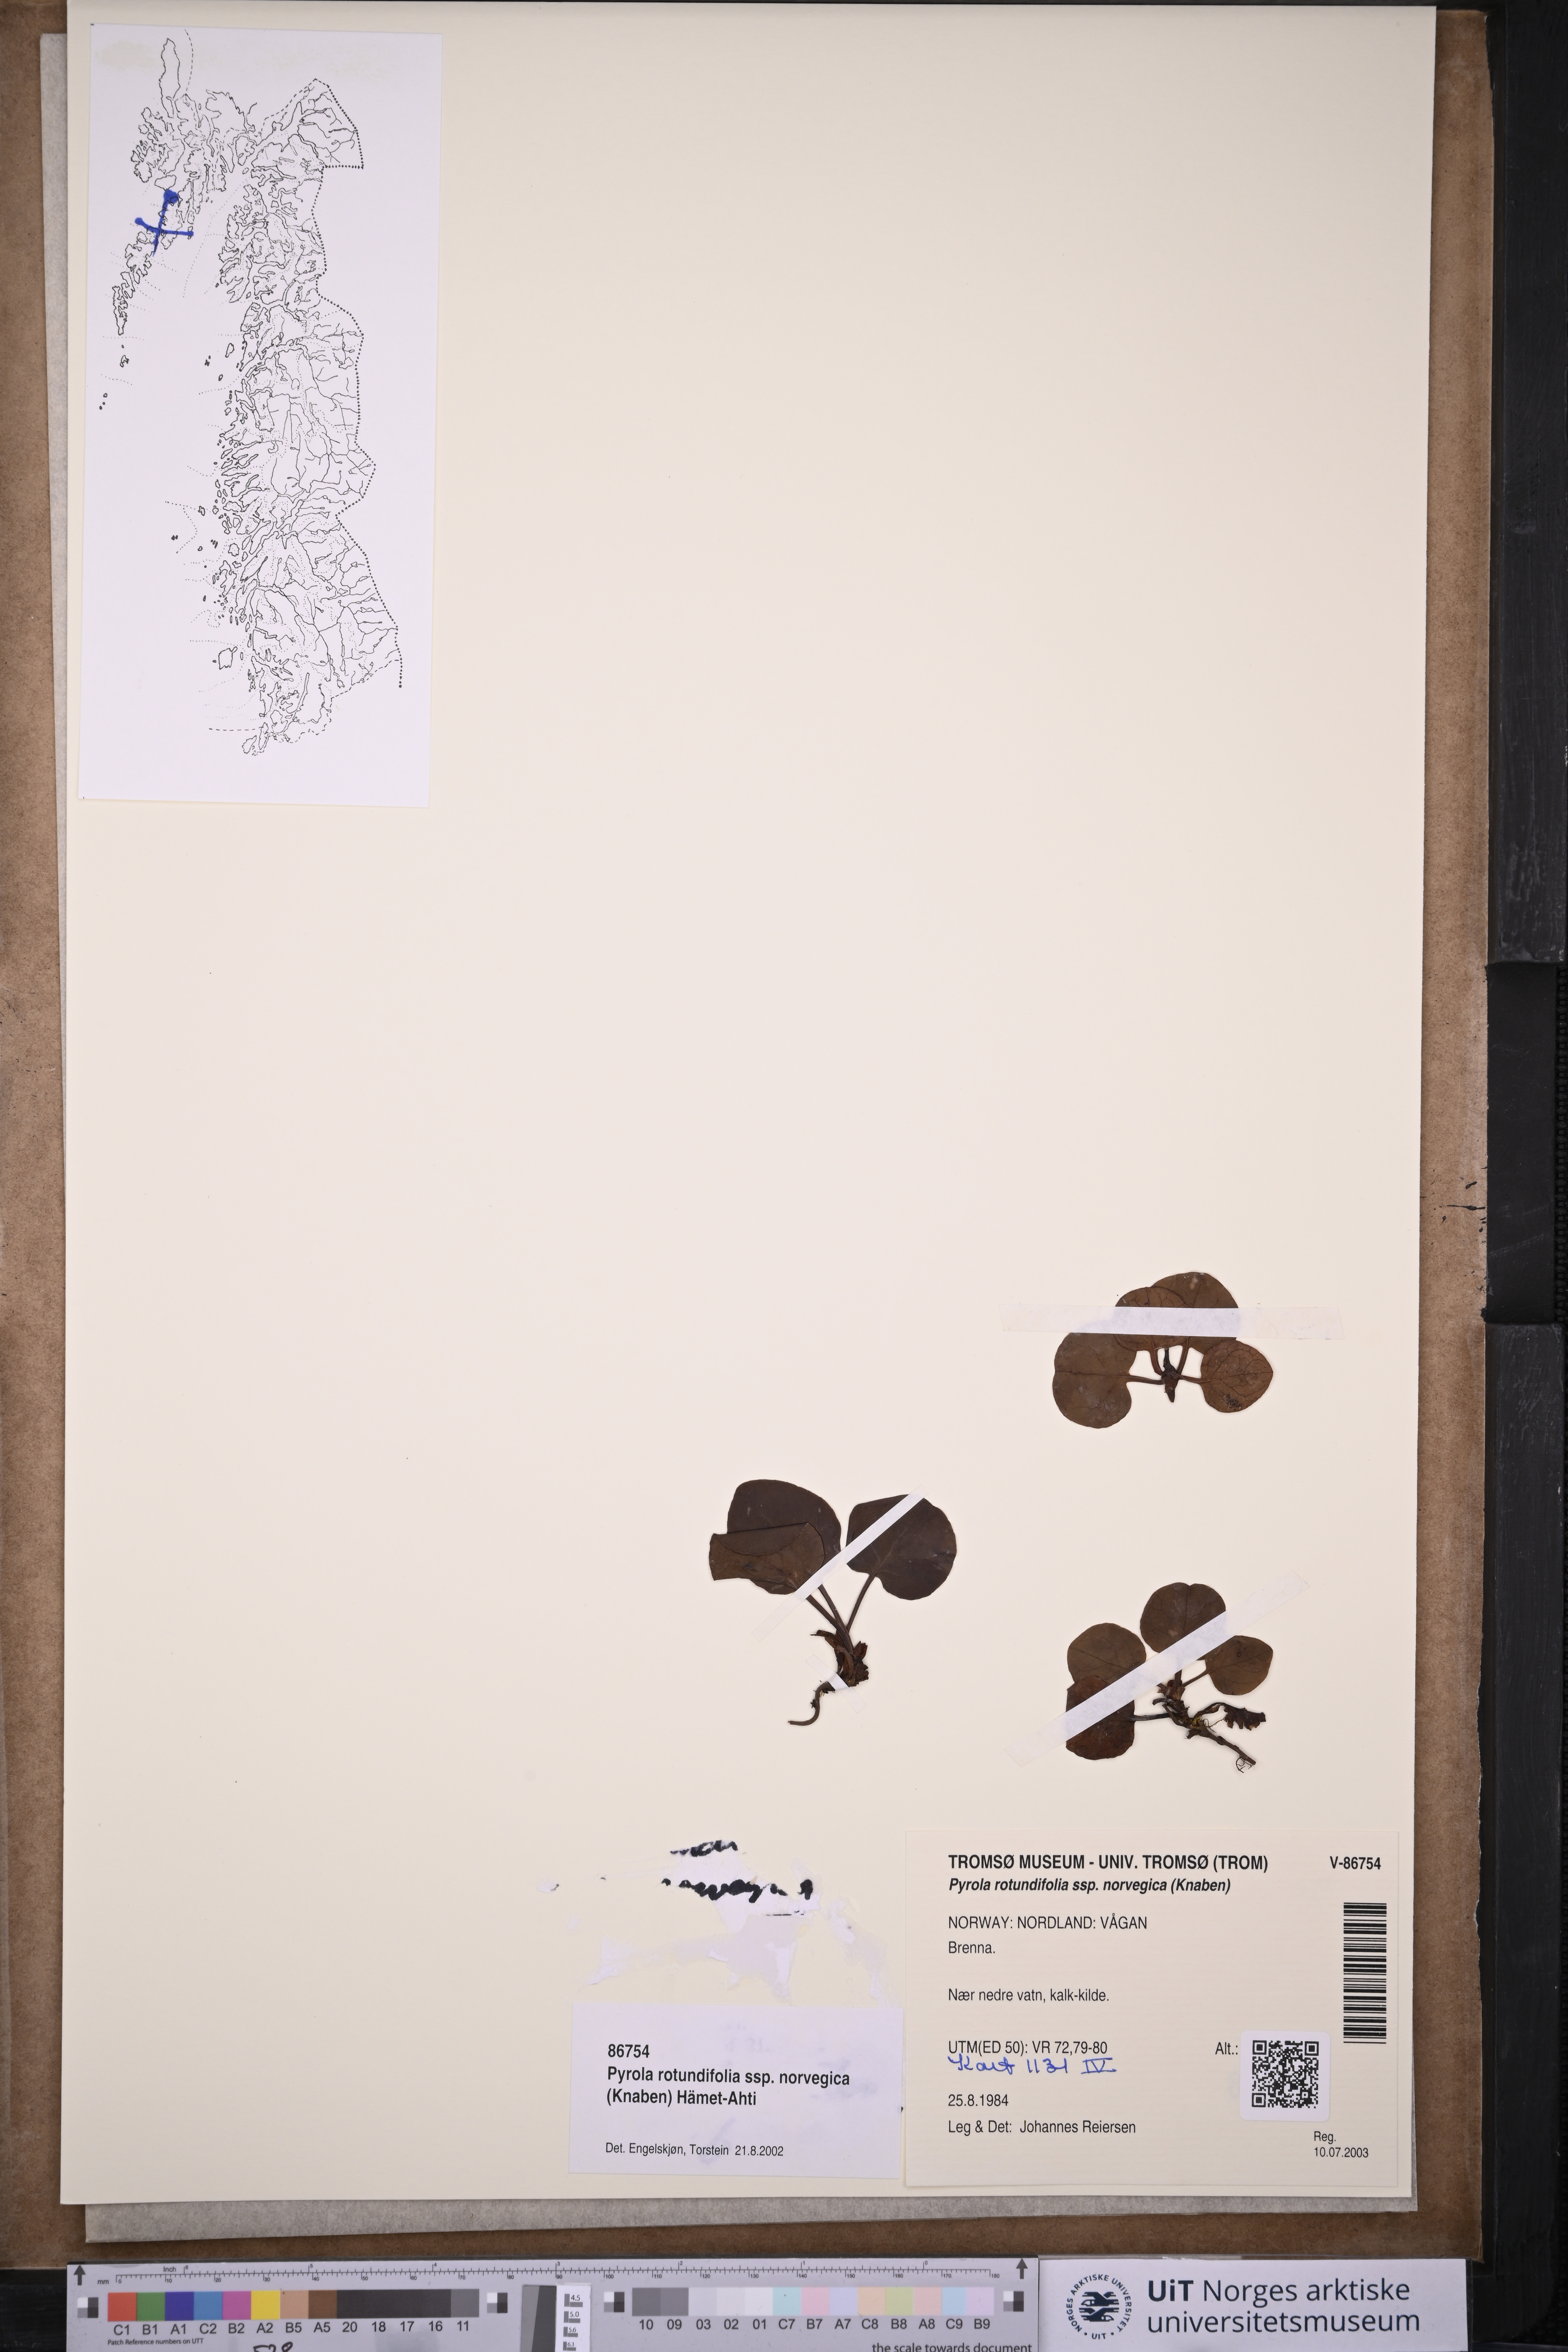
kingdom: Plantae
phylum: Tracheophyta
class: Magnoliopsida
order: Ericales
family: Ericaceae
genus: Pyrola
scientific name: Pyrola rotundifolia
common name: Round-leaved wintergreen
